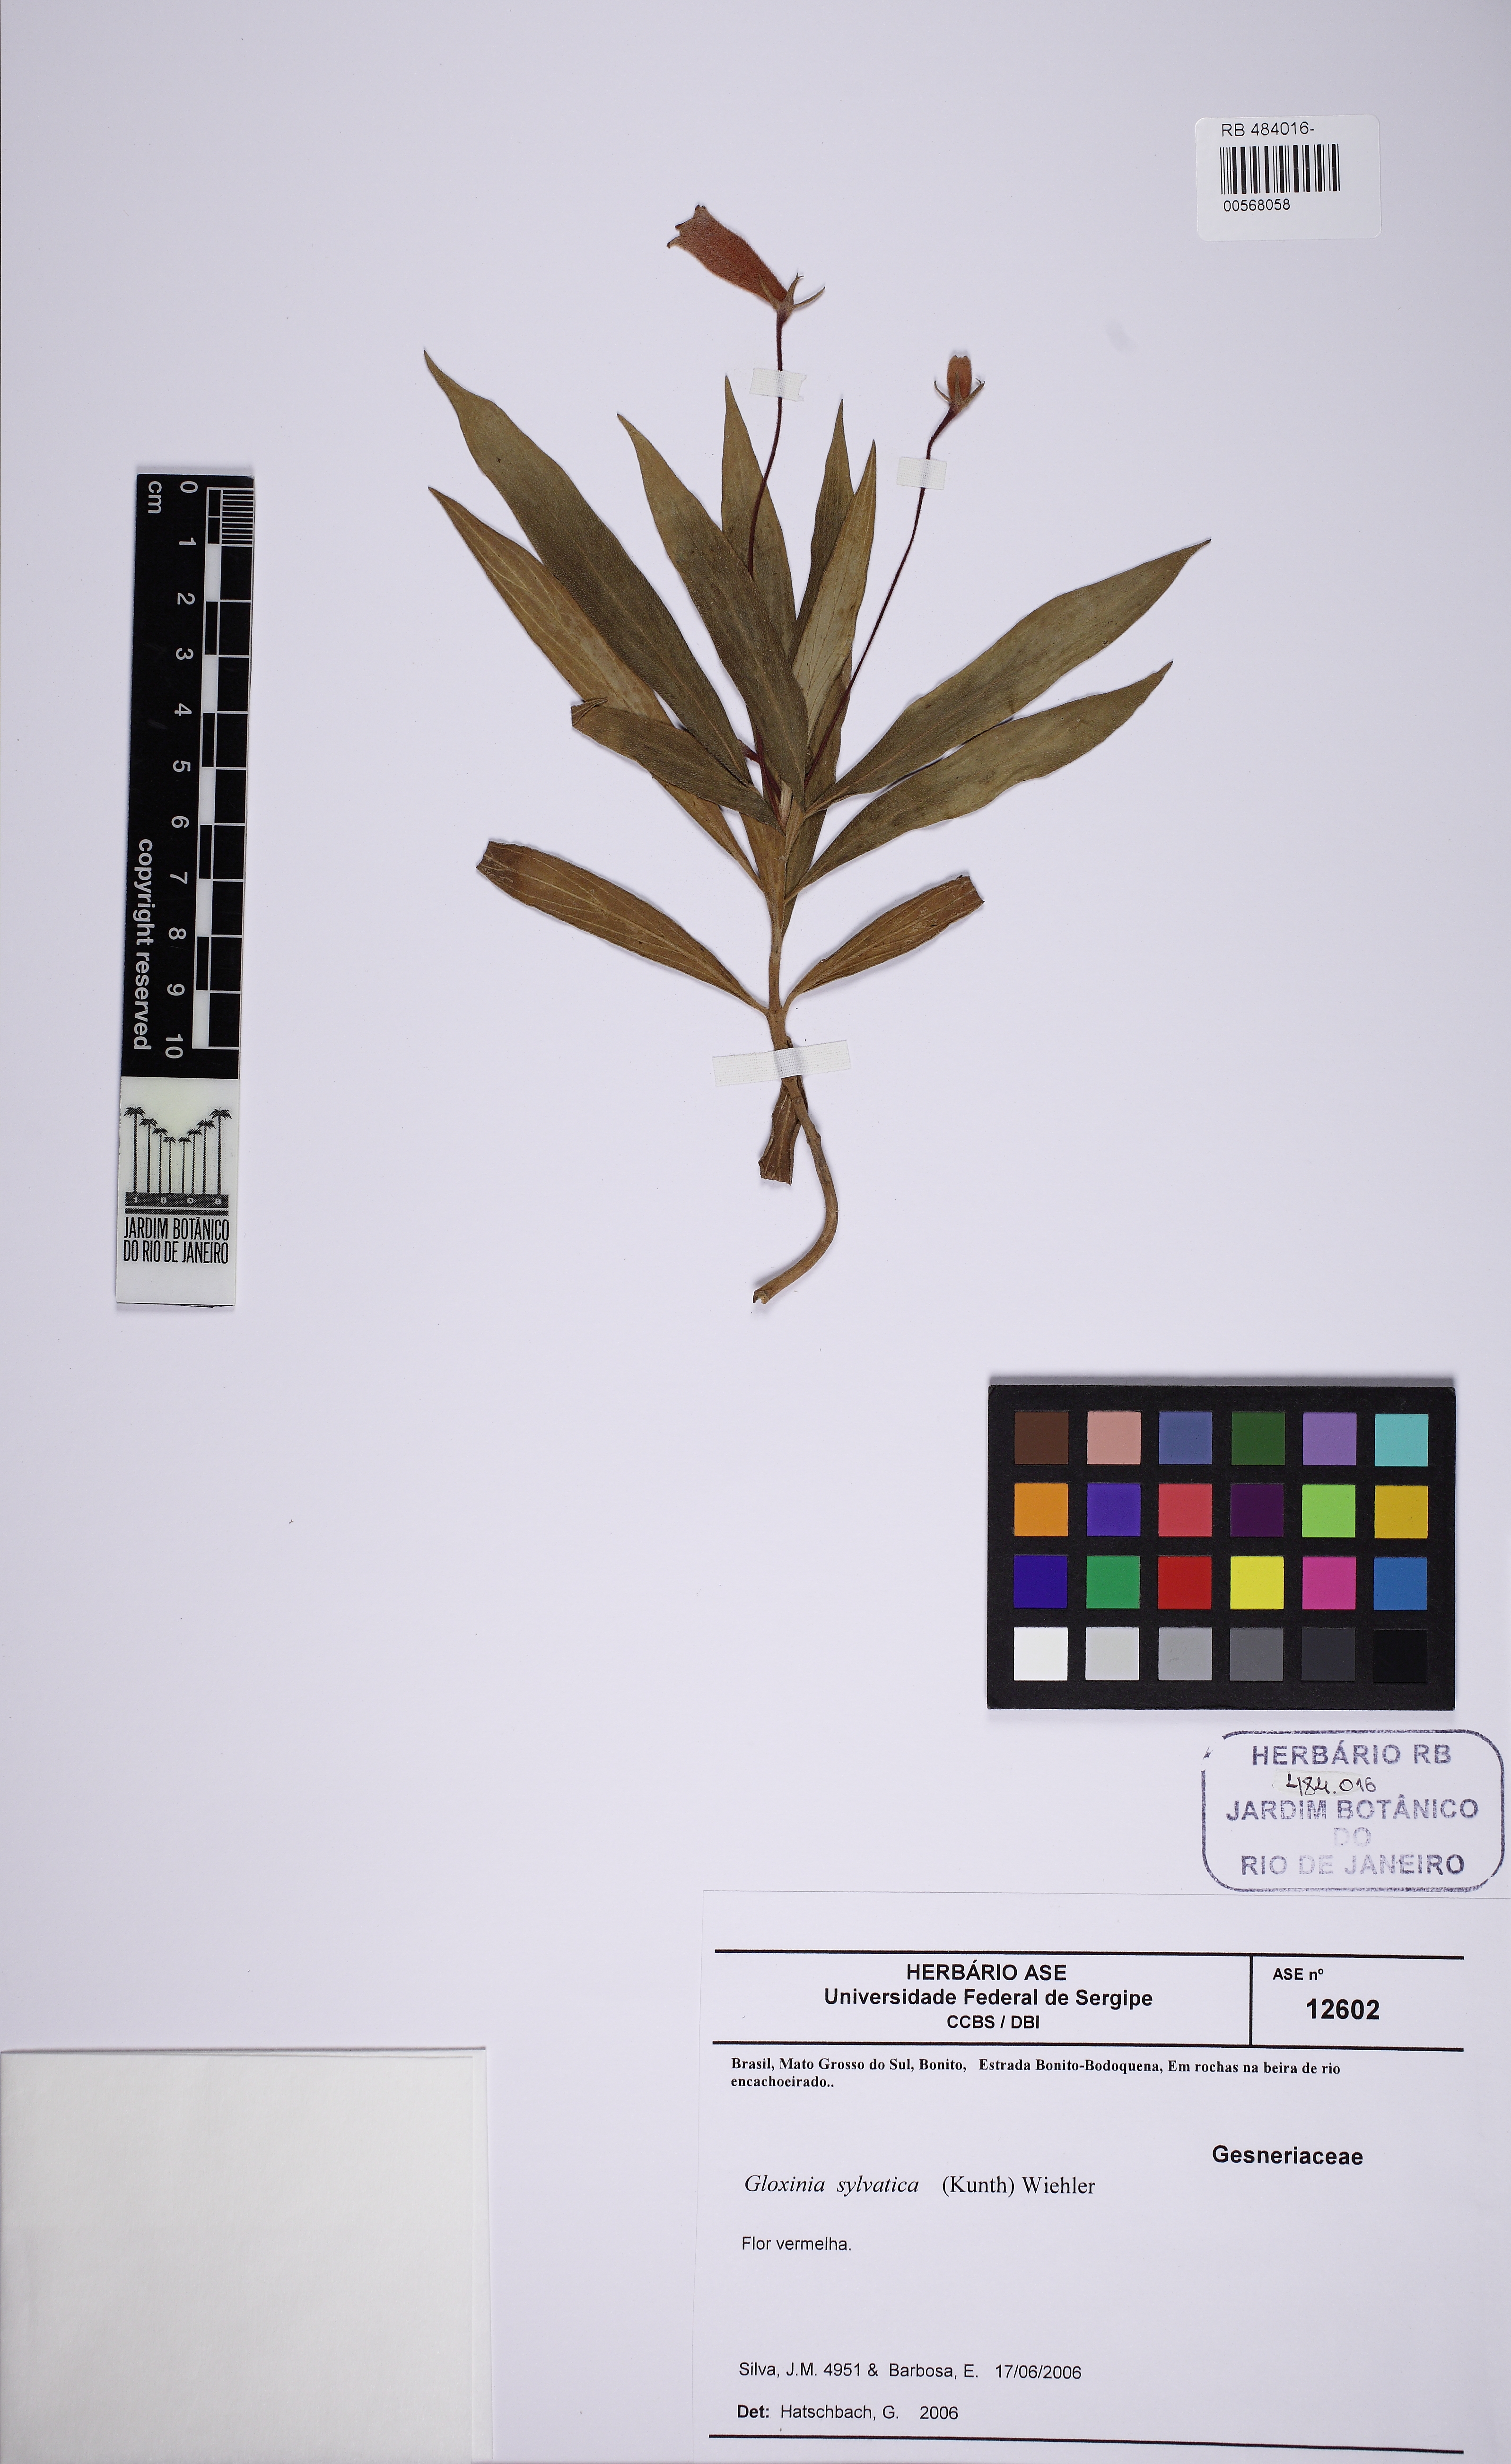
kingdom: Plantae
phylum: Tracheophyta
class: Magnoliopsida
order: Lamiales
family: Gesneriaceae
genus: Seemannia
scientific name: Seemannia sylvatica
